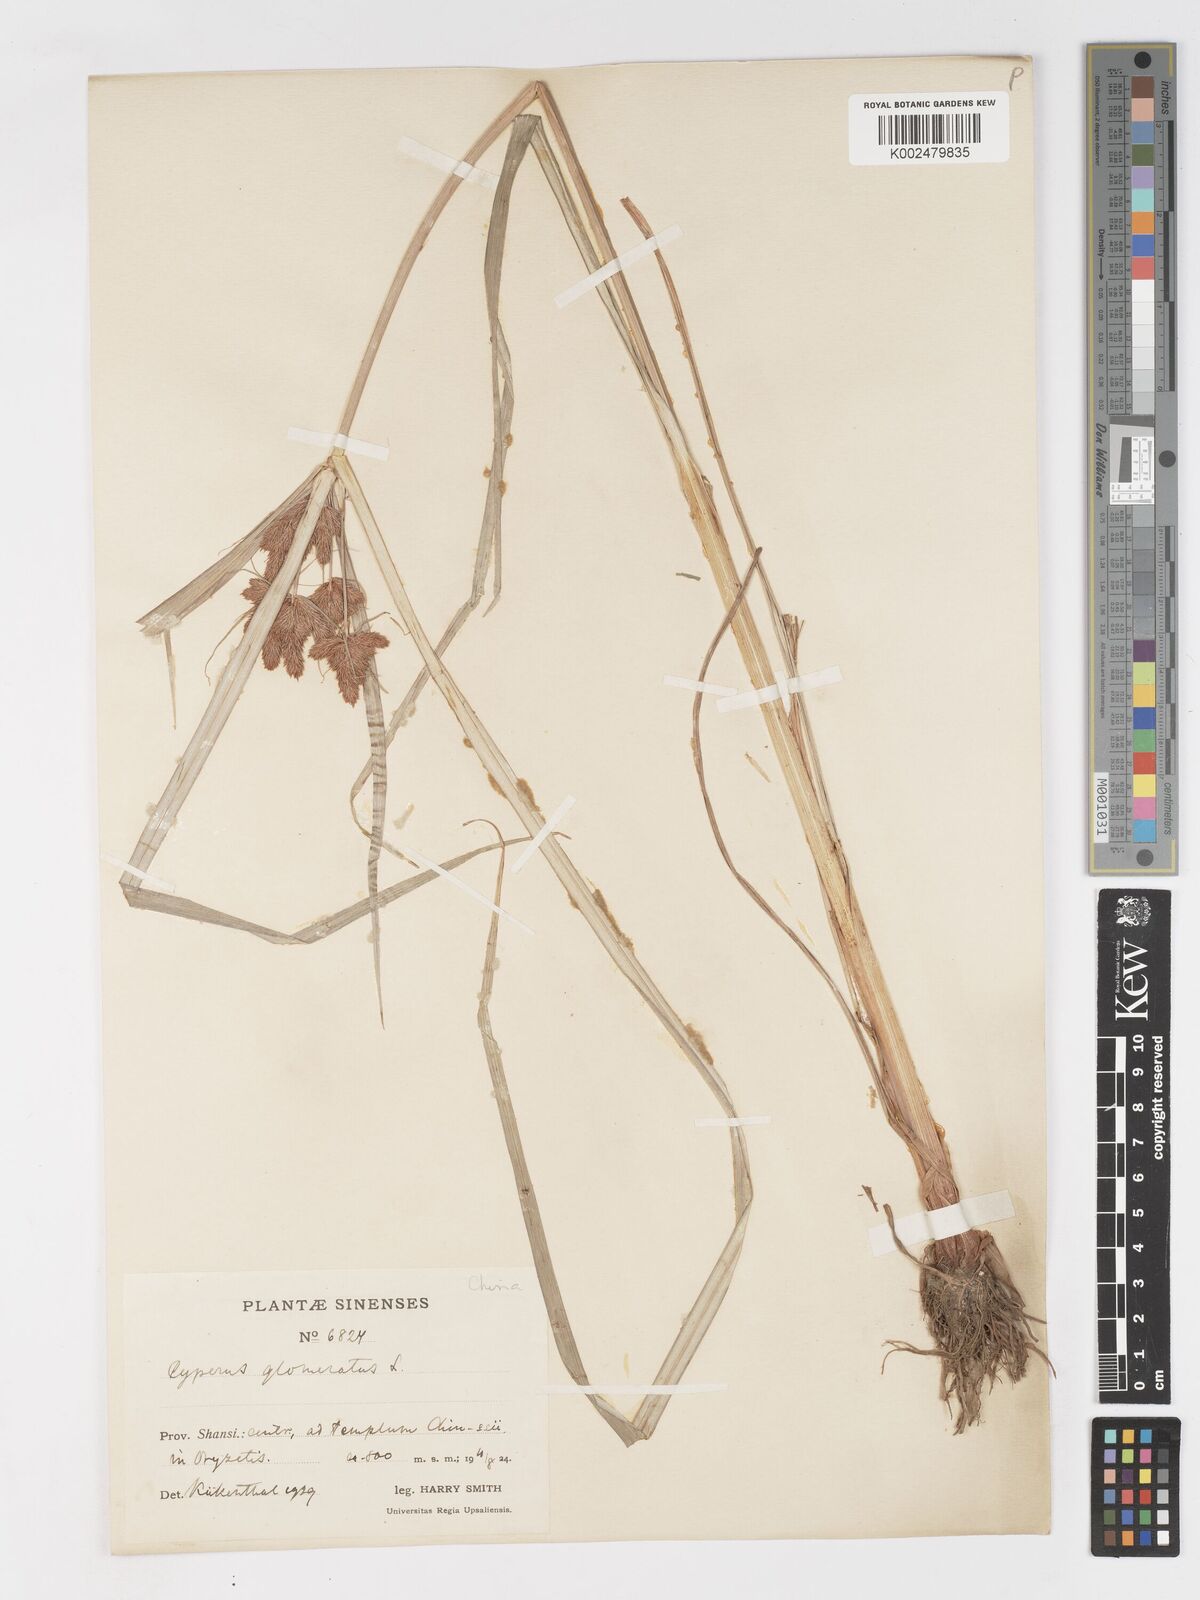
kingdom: Plantae
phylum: Tracheophyta
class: Liliopsida
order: Poales
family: Cyperaceae
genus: Cyperus
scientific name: Cyperus glomeratus
